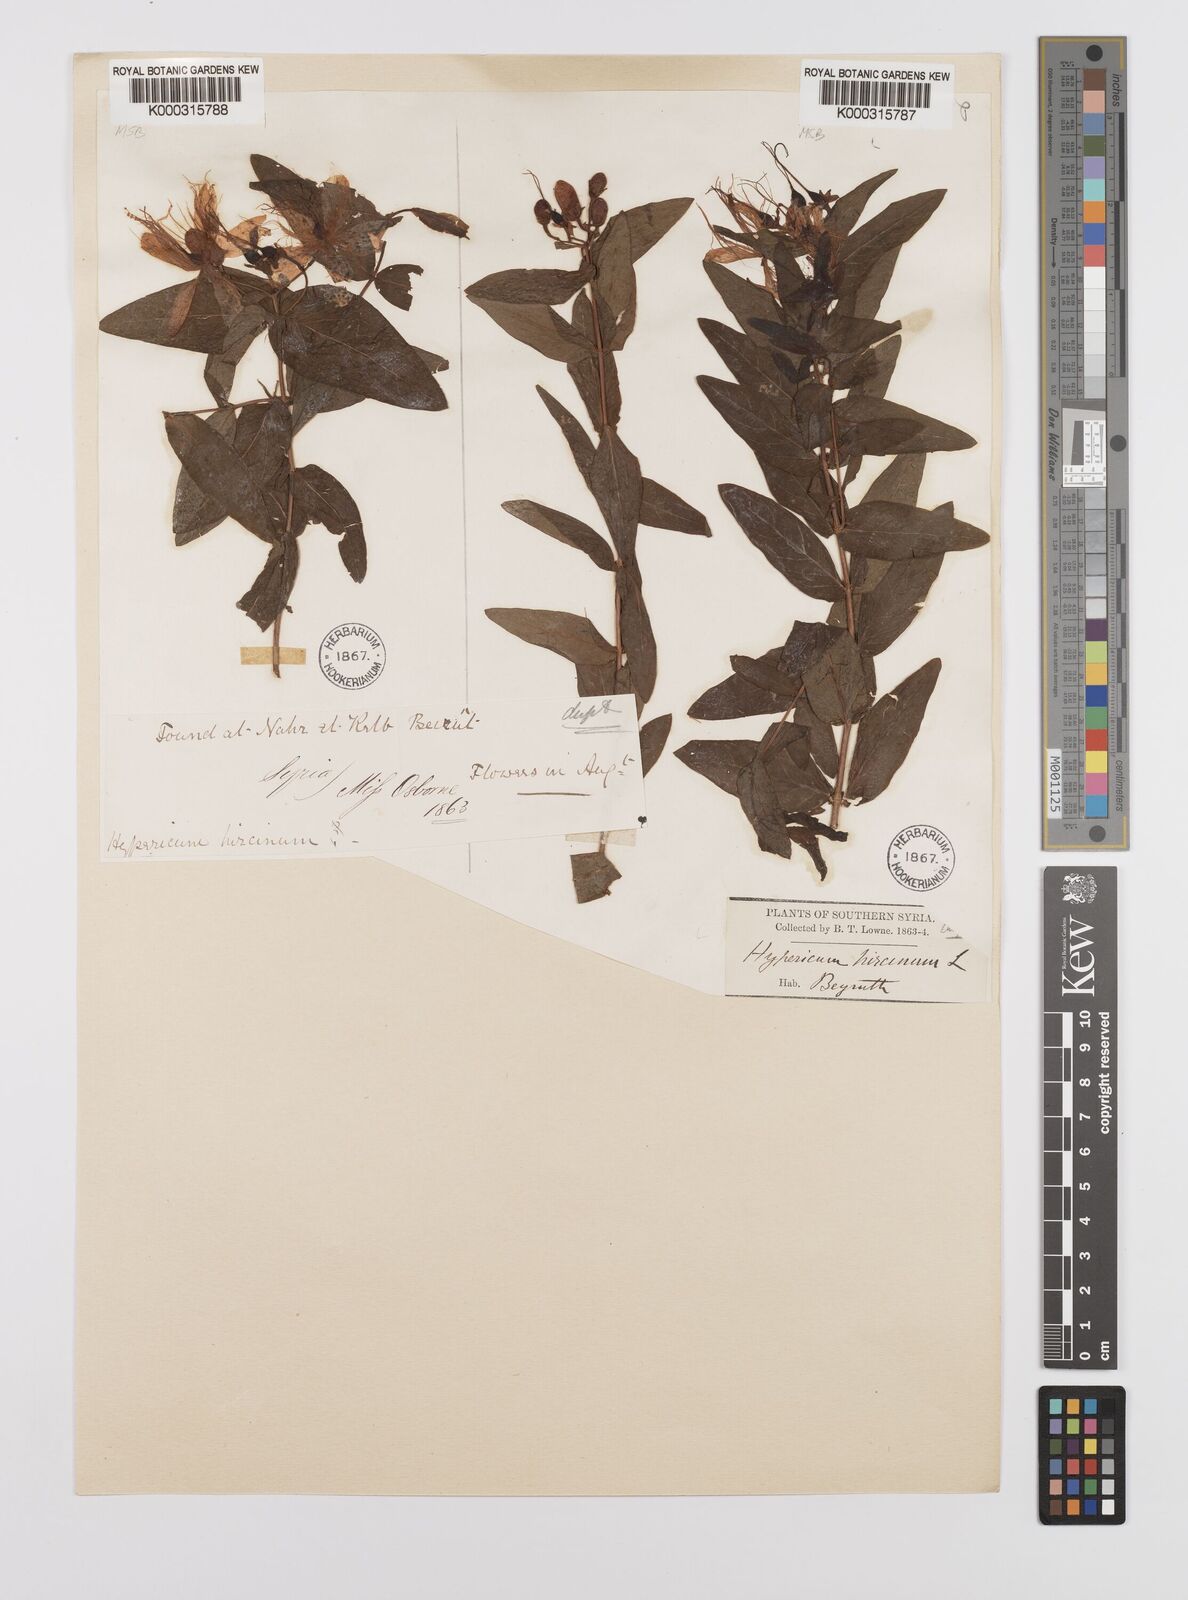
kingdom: Plantae
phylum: Tracheophyta
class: Magnoliopsida
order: Malpighiales
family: Hypericaceae
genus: Hypericum
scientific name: Hypericum hircinum
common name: Stinking tutsan
